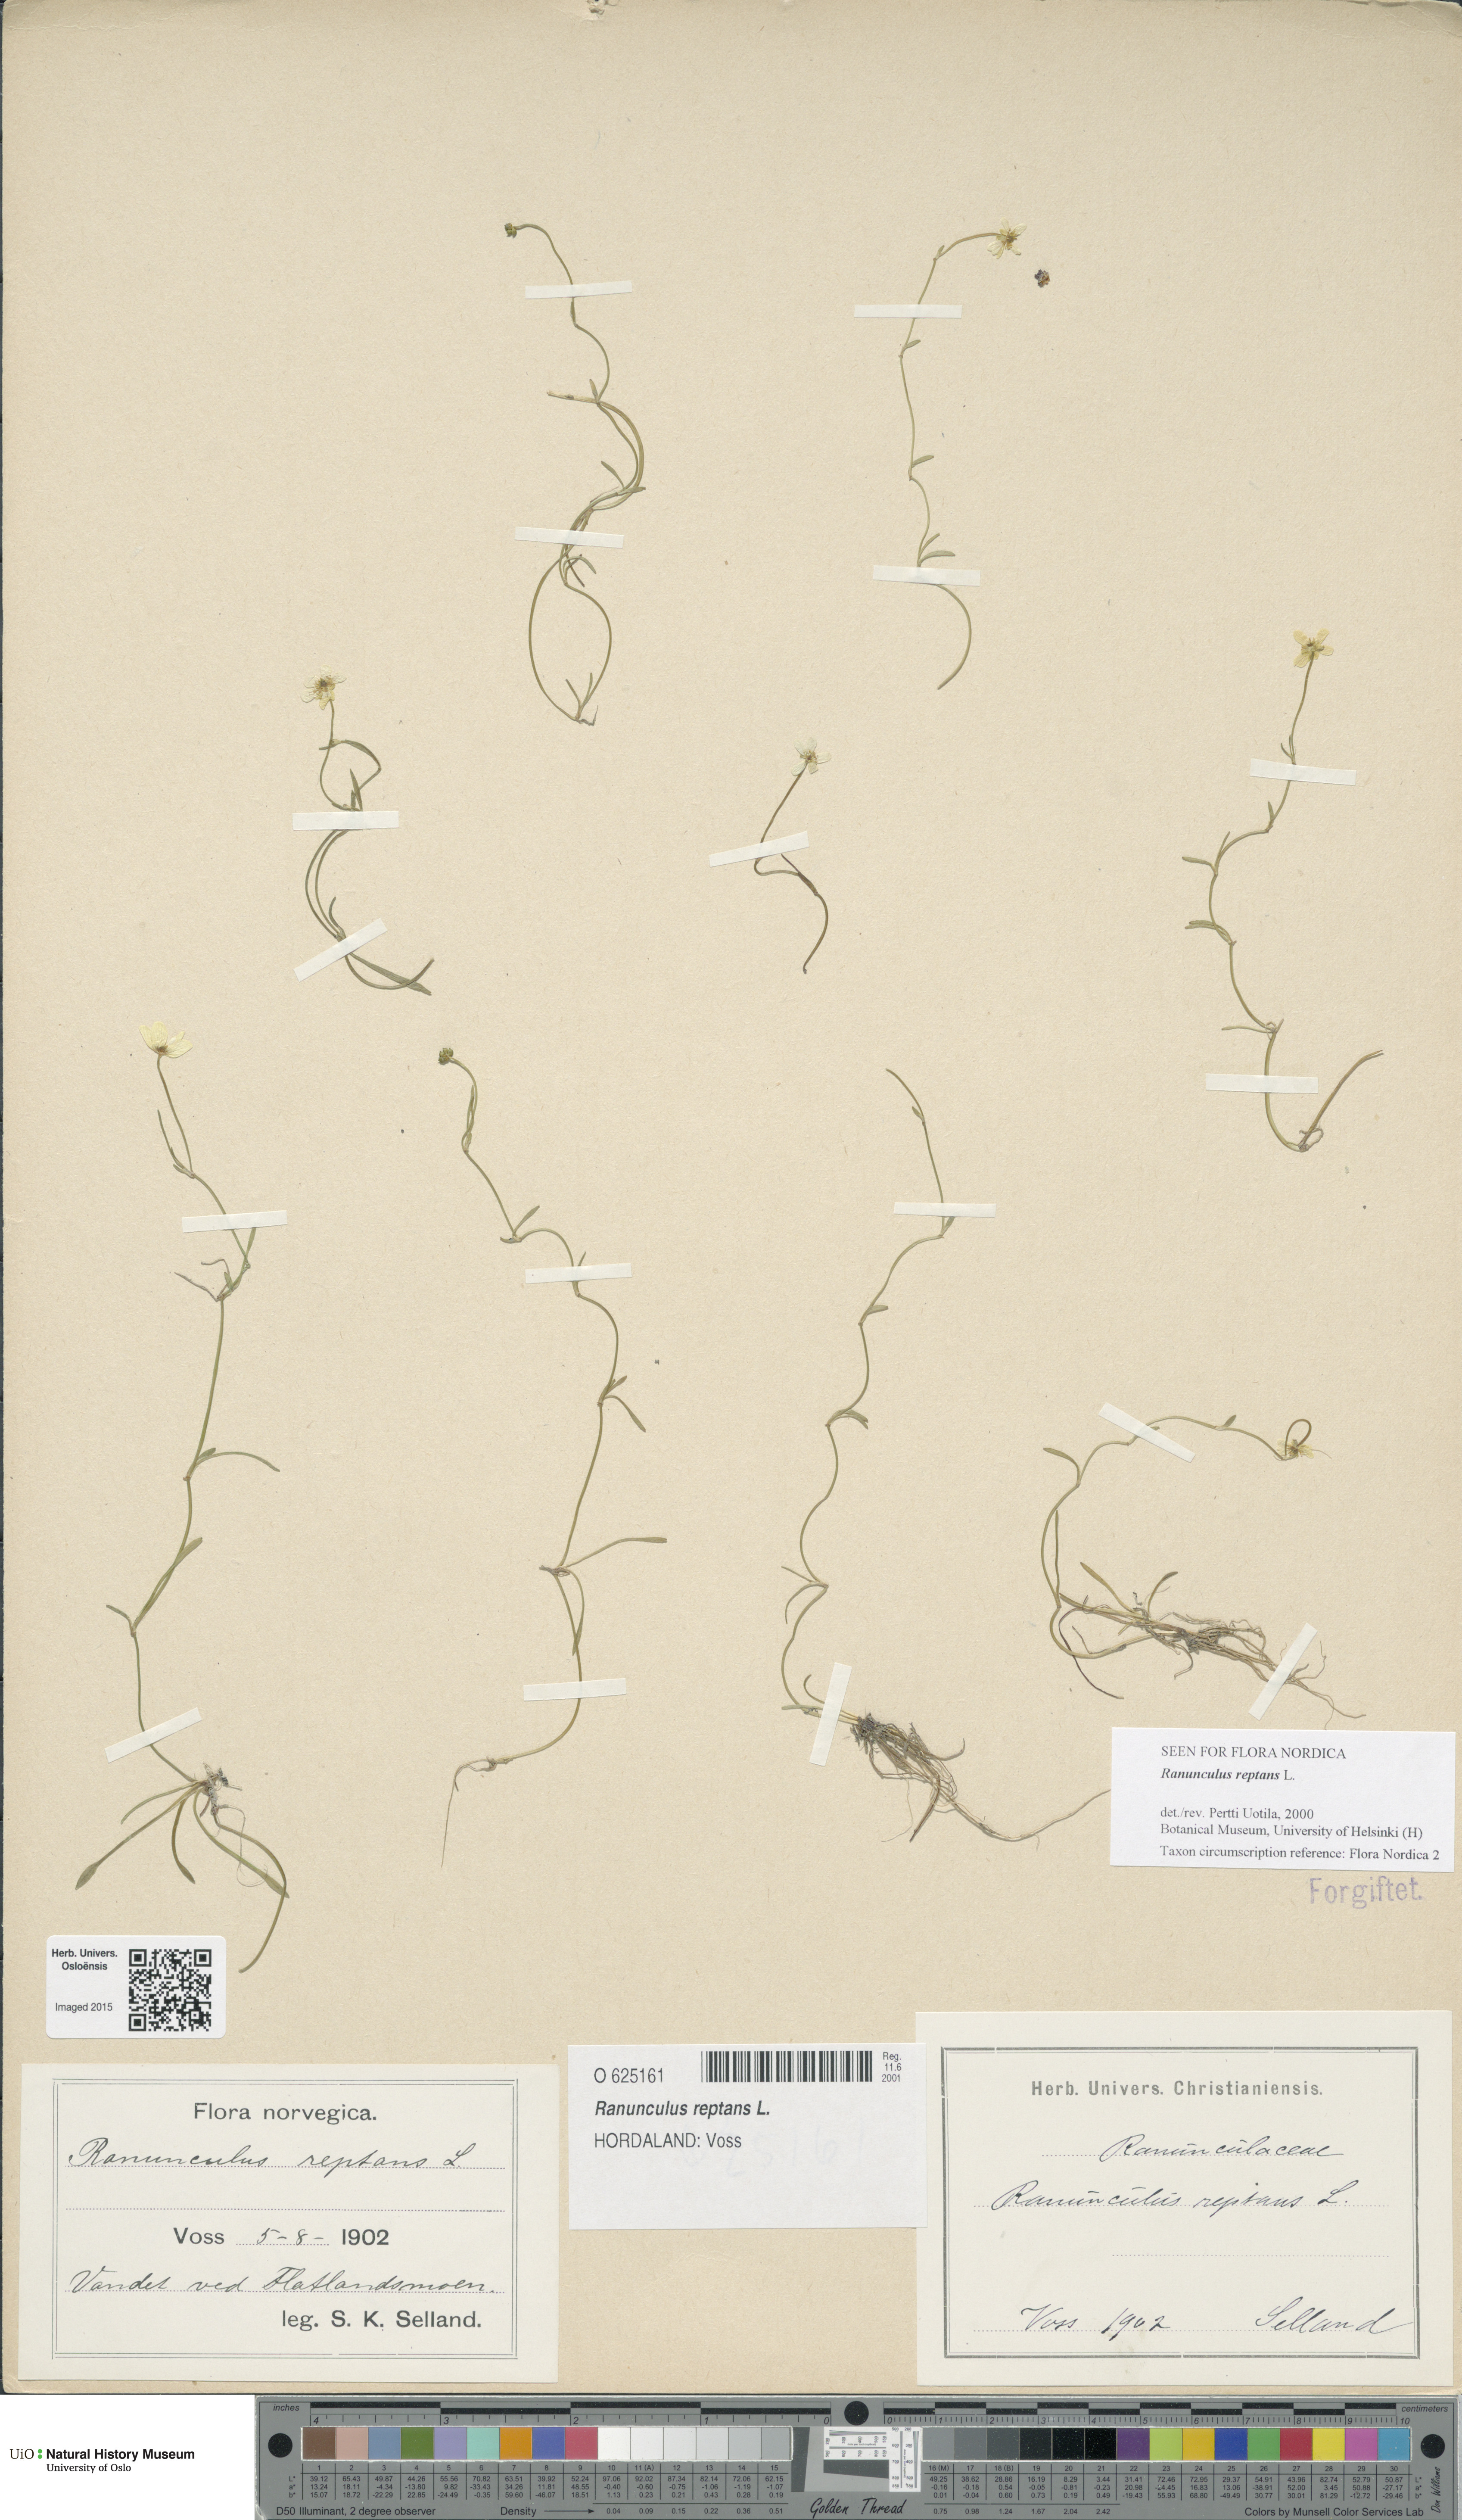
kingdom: Plantae
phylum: Tracheophyta
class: Magnoliopsida
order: Ranunculales
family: Ranunculaceae
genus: Ranunculus
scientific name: Ranunculus reptans
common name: Creeping spearwort
